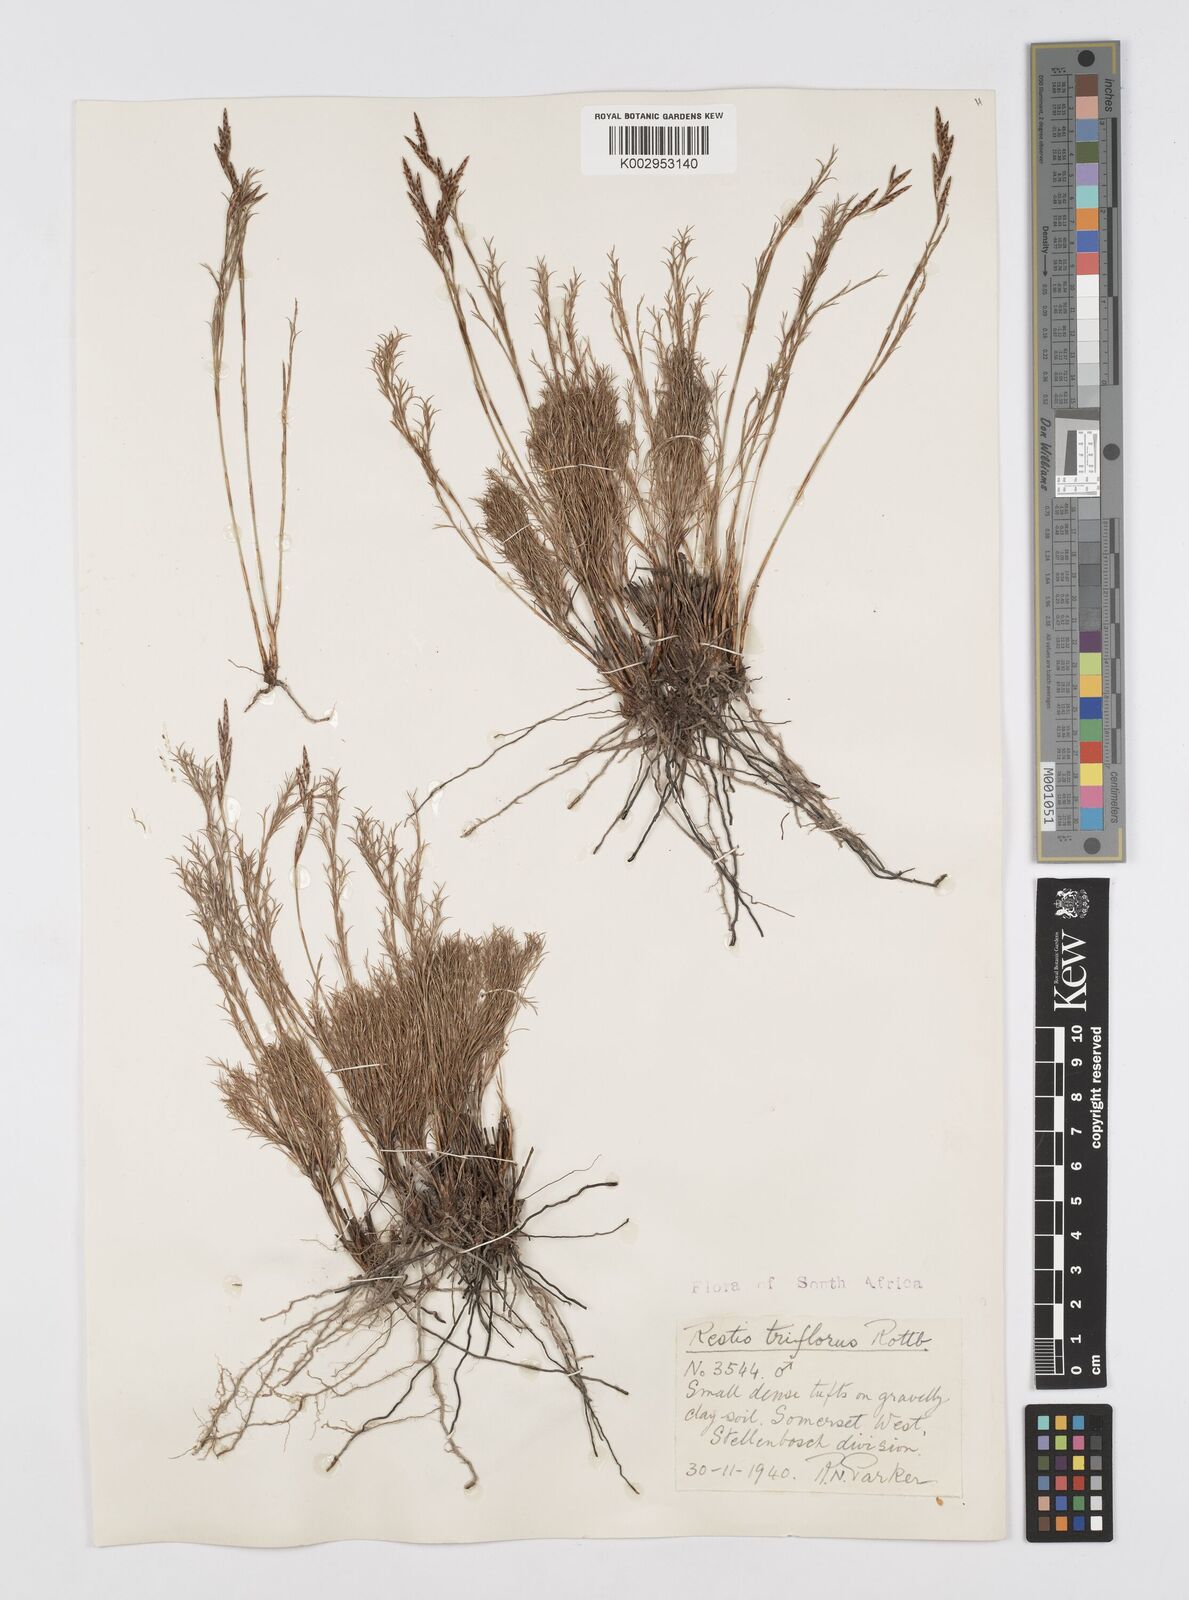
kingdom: Plantae
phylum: Tracheophyta
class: Liliopsida
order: Poales
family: Restionaceae
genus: Restio
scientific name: Restio triflorus
